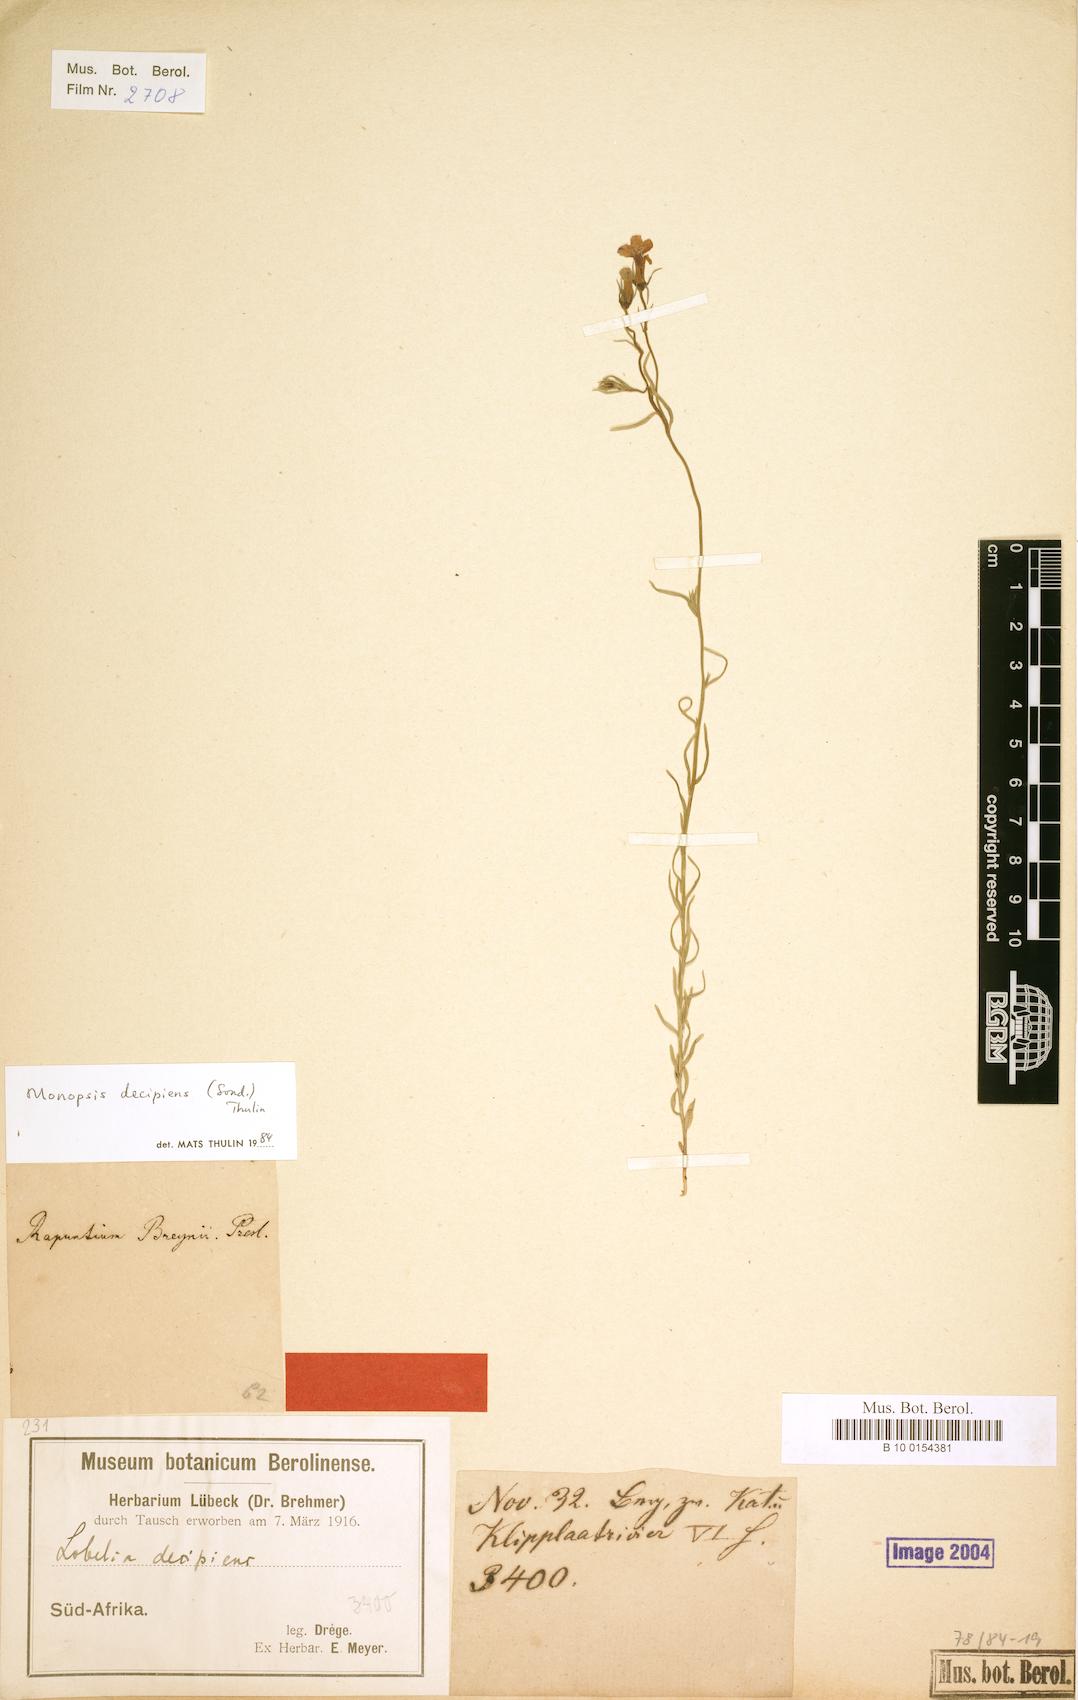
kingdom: Plantae
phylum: Tracheophyta
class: Magnoliopsida
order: Asterales
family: Campanulaceae
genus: Monopsis
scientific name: Monopsis decipiens
